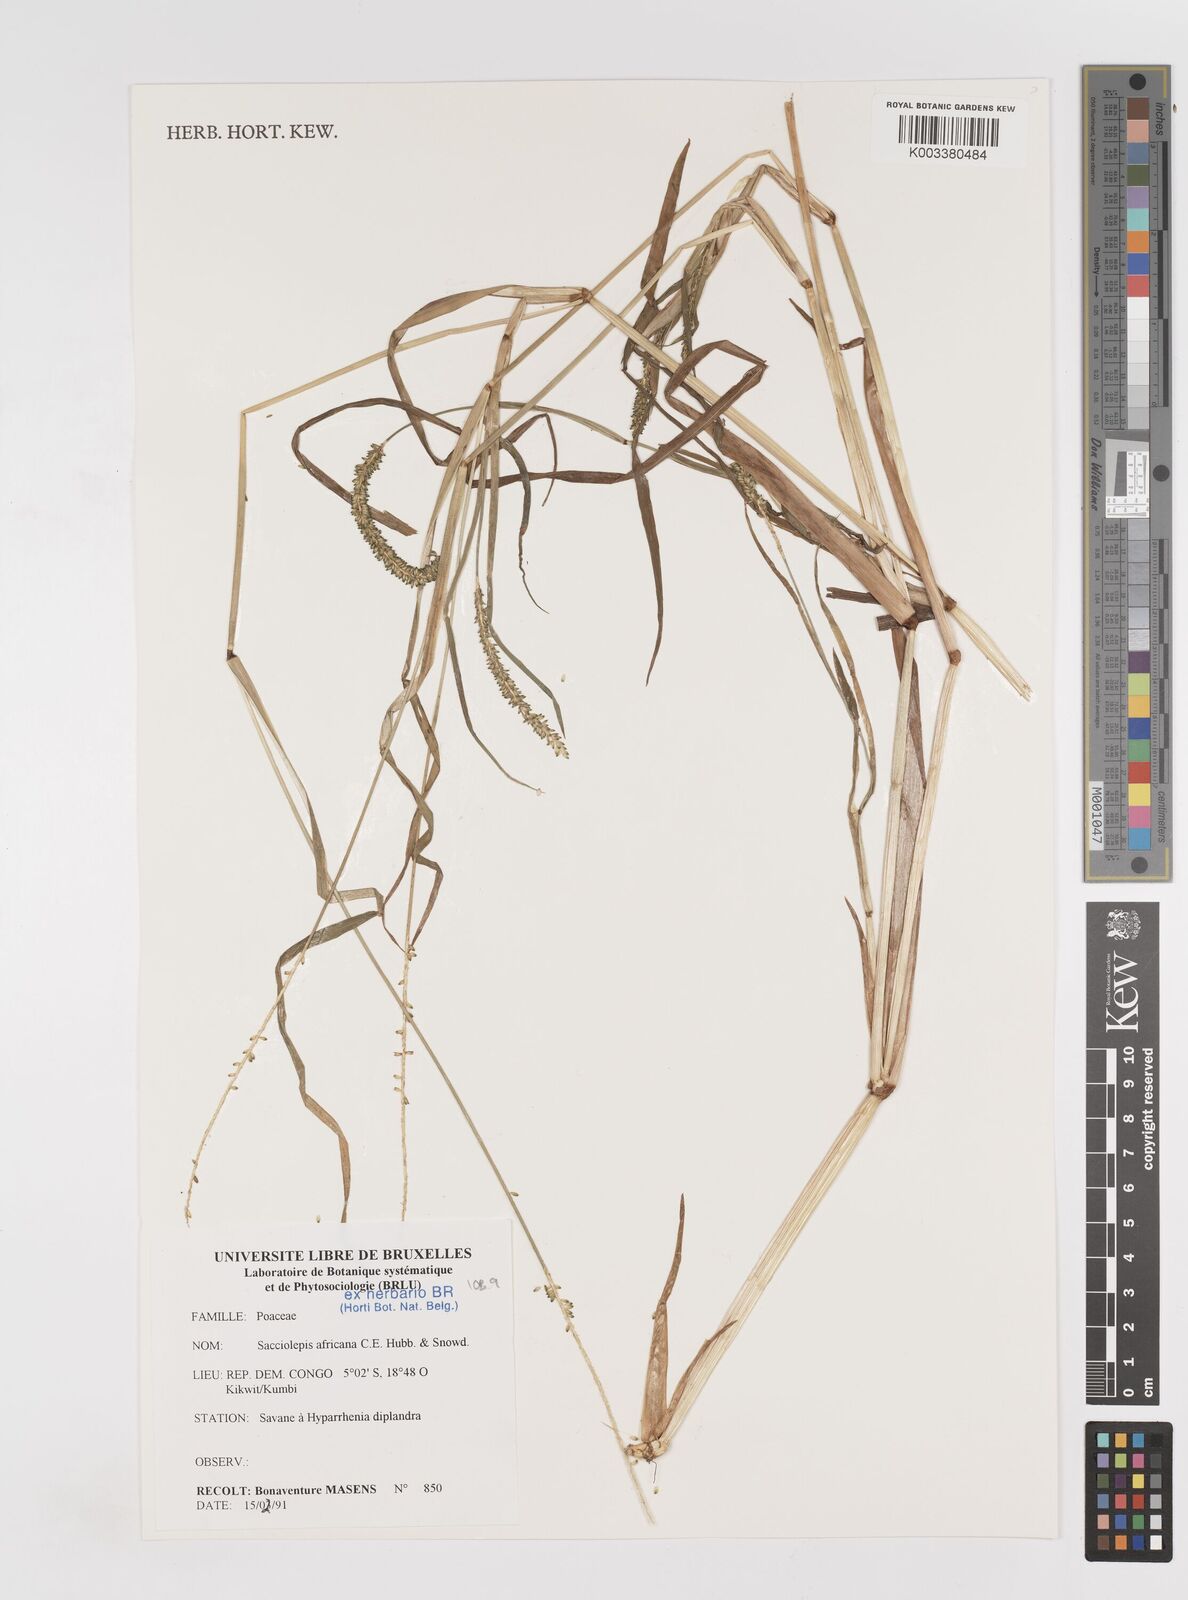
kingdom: Plantae
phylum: Tracheophyta
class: Liliopsida
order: Poales
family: Poaceae
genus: Sacciolepis
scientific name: Sacciolepis africana
